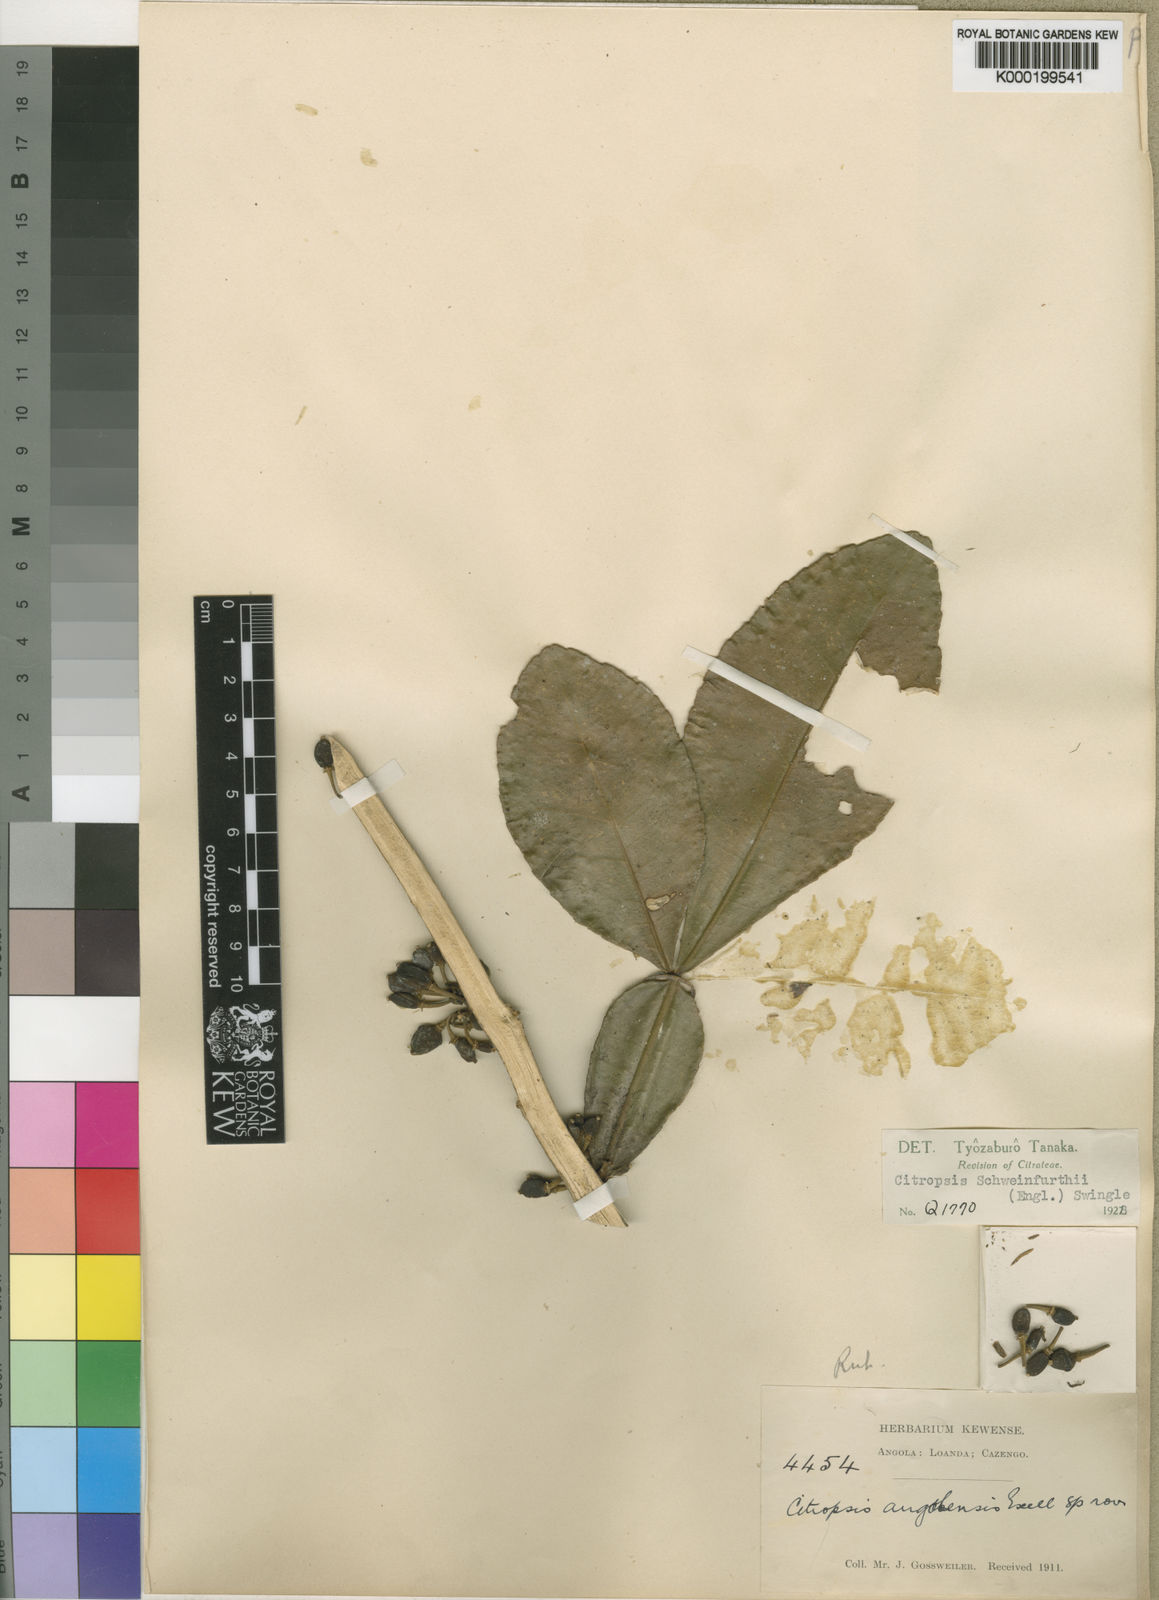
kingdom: Plantae
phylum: Tracheophyta
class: Magnoliopsida
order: Sapindales
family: Rutaceae
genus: Citropsis
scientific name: Citropsis angolensis
